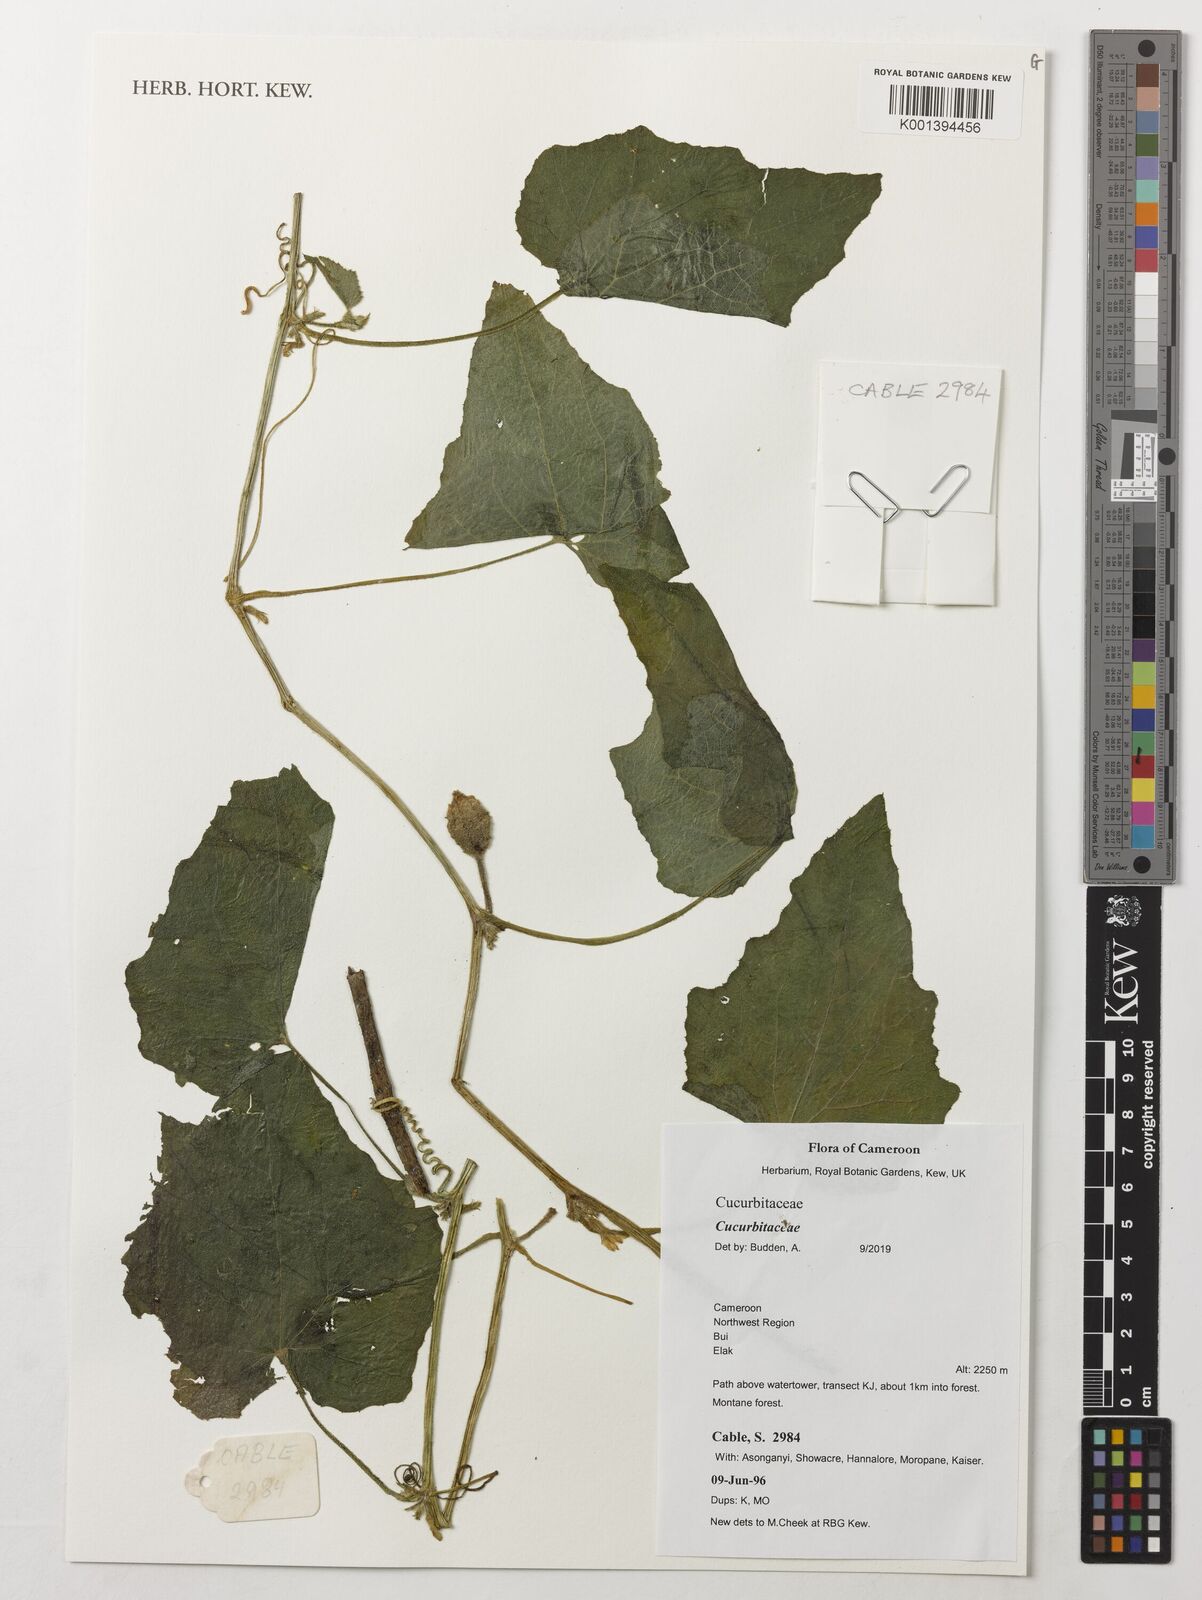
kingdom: Plantae
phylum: Tracheophyta
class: Magnoliopsida
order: Cucurbitales
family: Cucurbitaceae
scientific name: Cucurbitaceae
